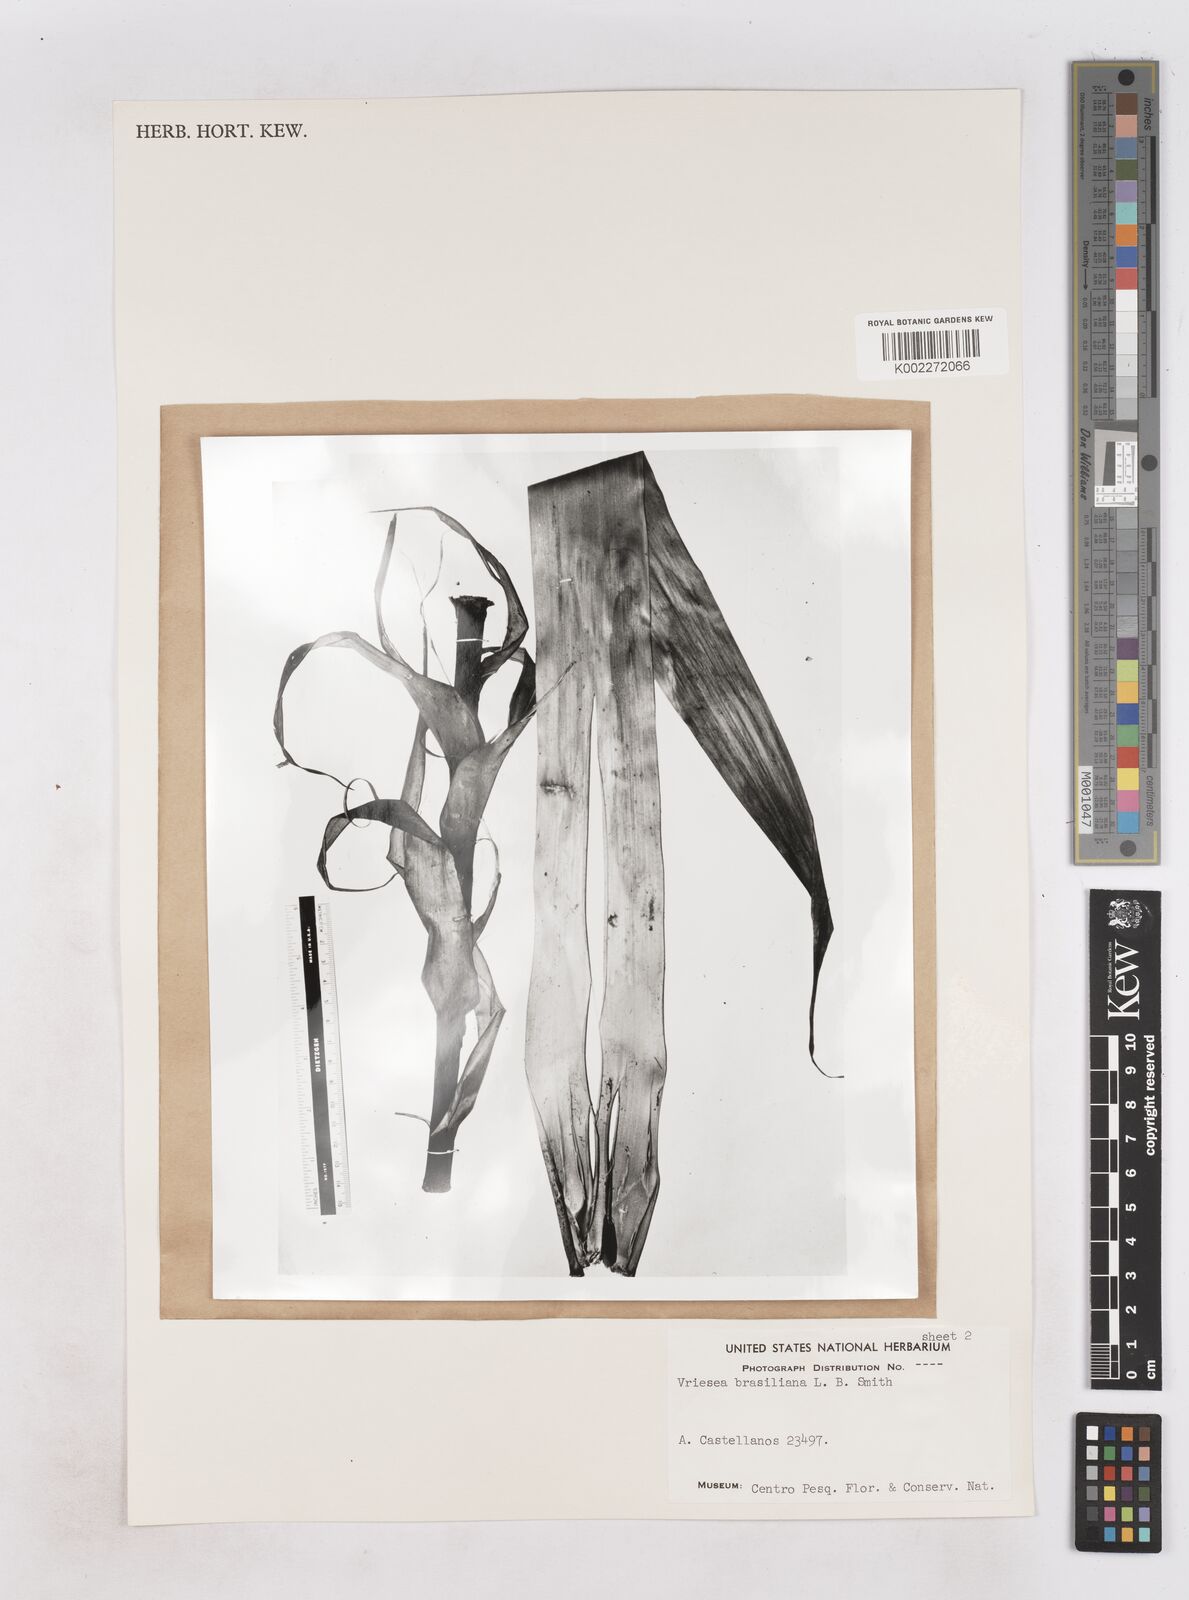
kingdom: Plantae
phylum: Tracheophyta
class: Liliopsida
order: Poales
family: Bromeliaceae
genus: Alcantarea
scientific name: Alcantarea geniculata
